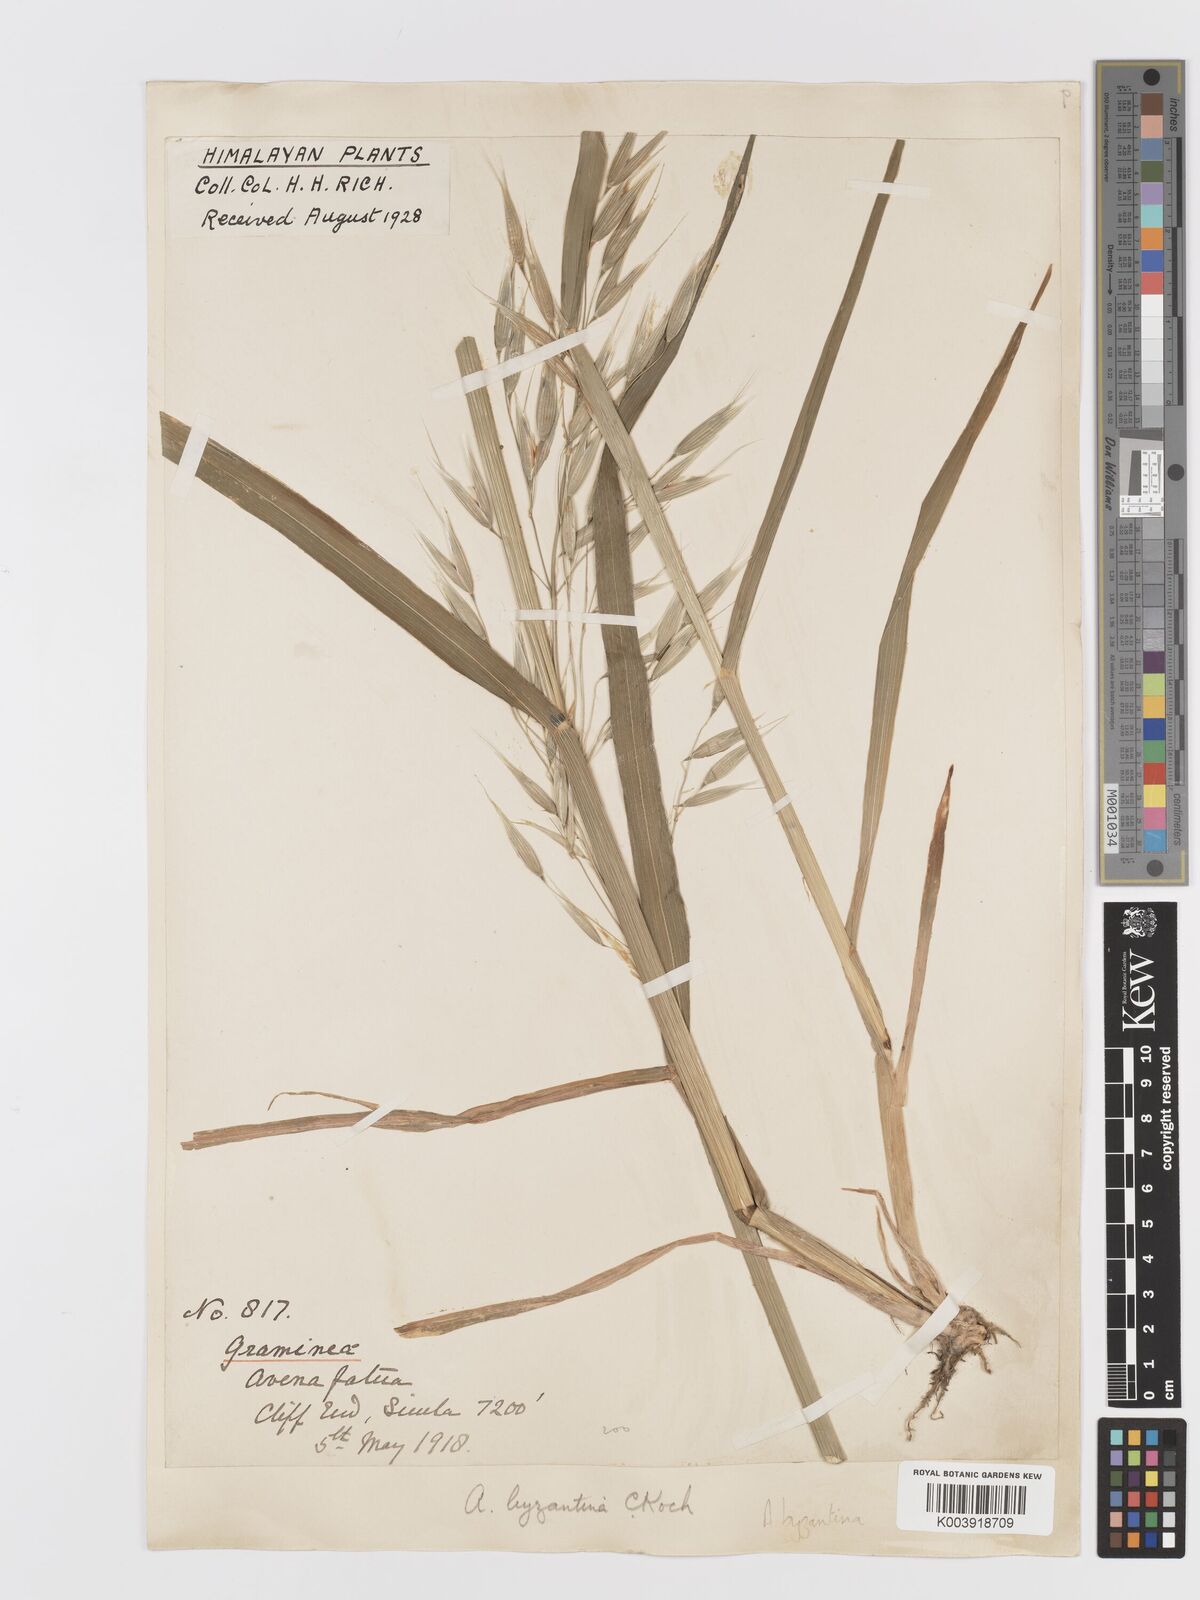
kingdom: Plantae
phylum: Tracheophyta
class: Liliopsida
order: Poales
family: Poaceae
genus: Avena
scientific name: Avena byzantina
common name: Algerian oat
